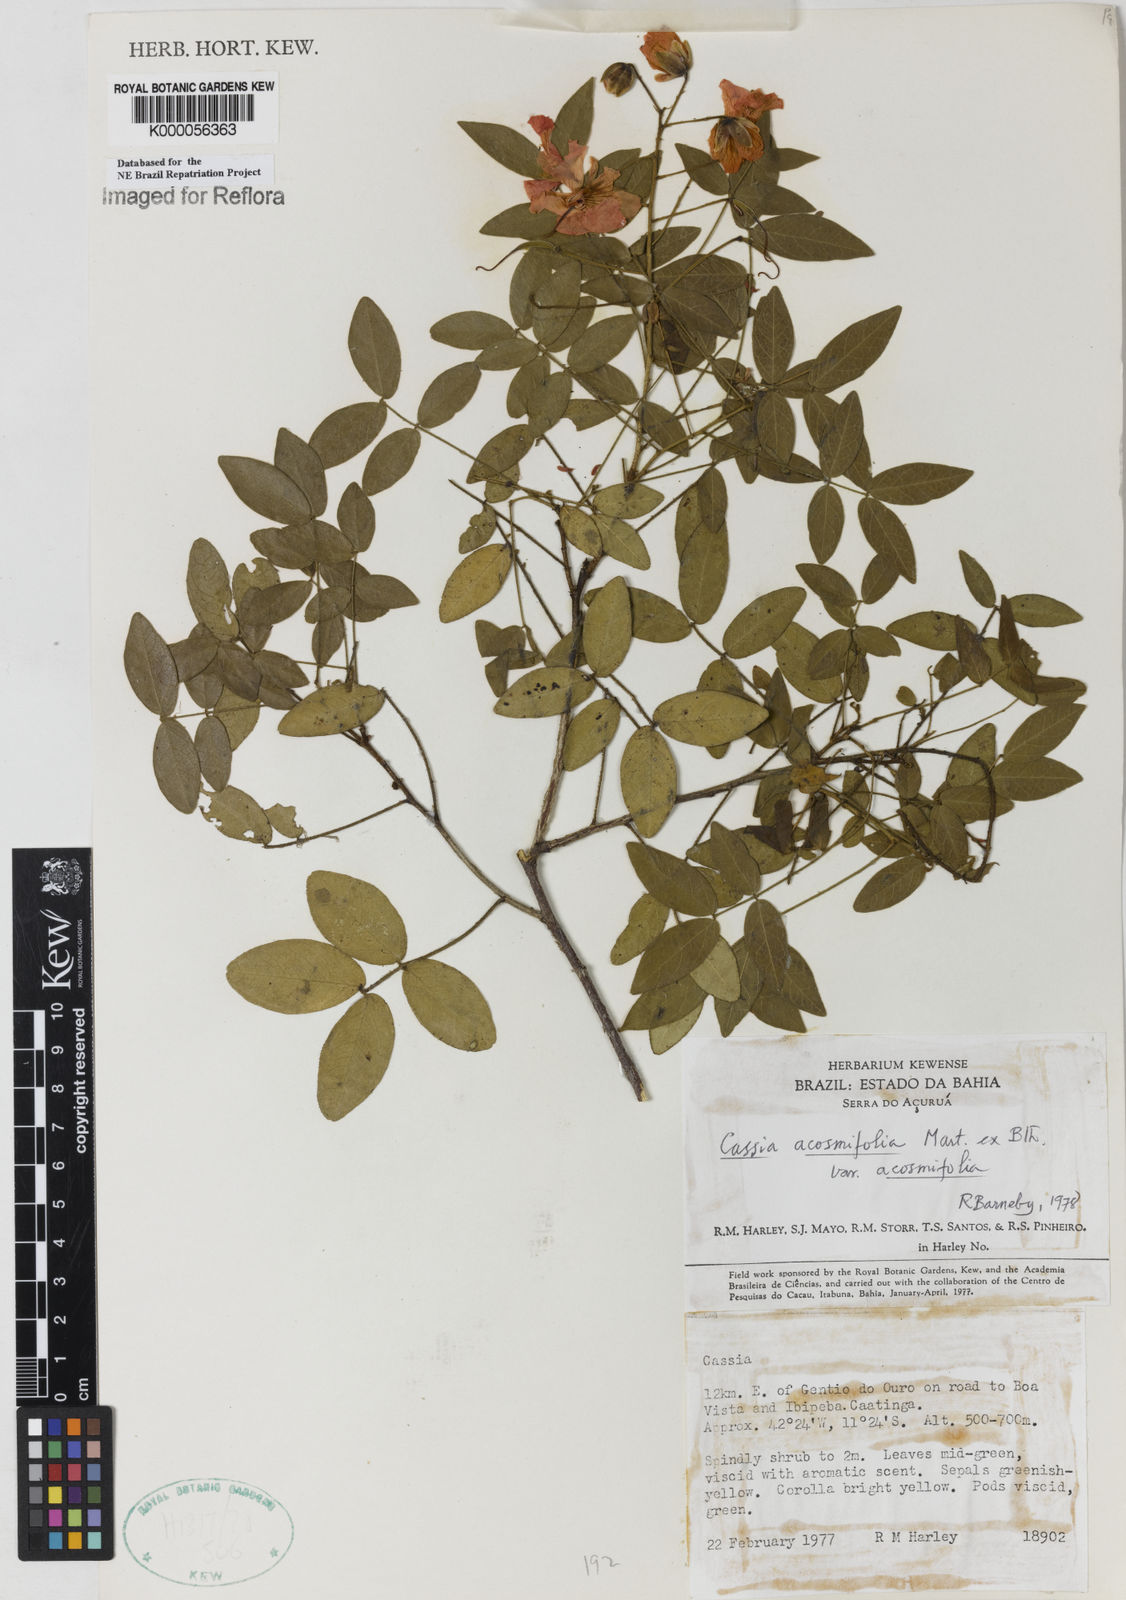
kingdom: Plantae
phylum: Tracheophyta
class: Magnoliopsida
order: Fabales
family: Fabaceae
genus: Chamaecrista
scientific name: Chamaecrista acosmifolia
